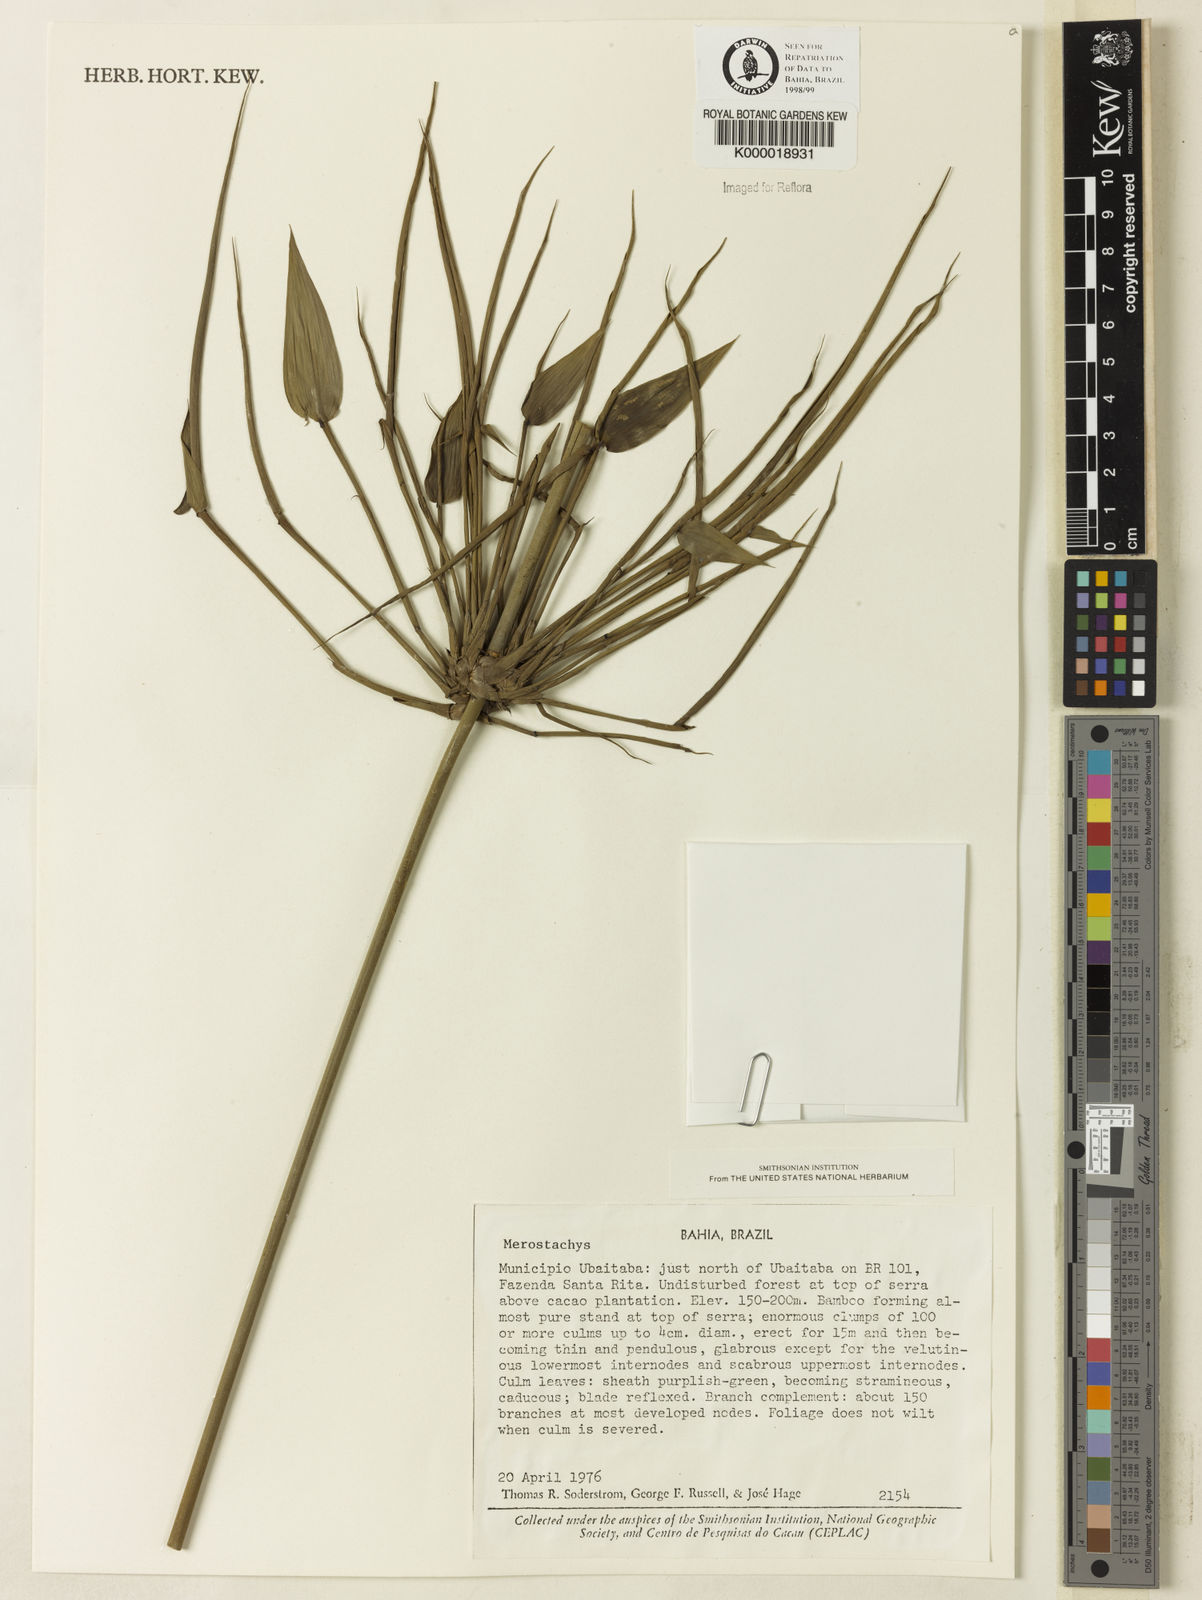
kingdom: Plantae
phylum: Tracheophyta
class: Liliopsida
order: Poales
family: Poaceae
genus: Merostachys
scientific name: Merostachys
